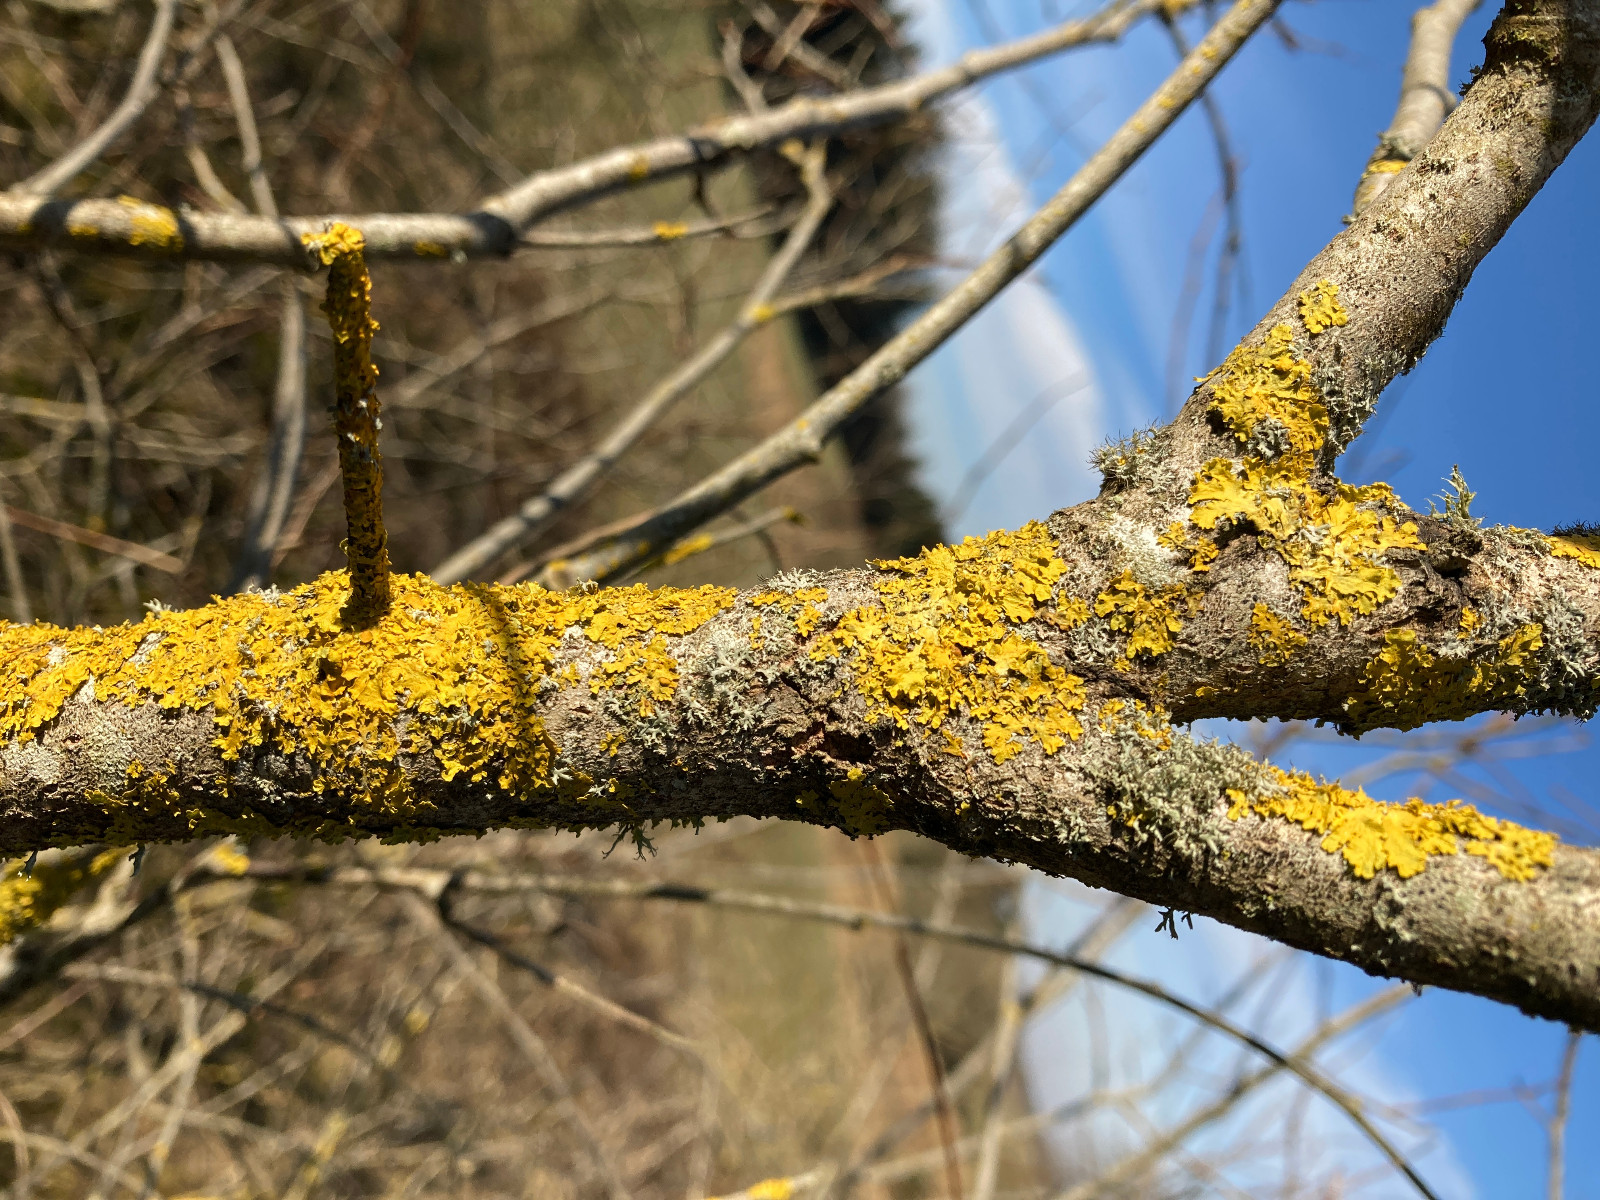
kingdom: Fungi
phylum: Ascomycota
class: Lecanoromycetes
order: Teloschistales
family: Teloschistaceae
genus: Xanthoria
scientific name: Xanthoria parietina
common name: almindelig væggelav
